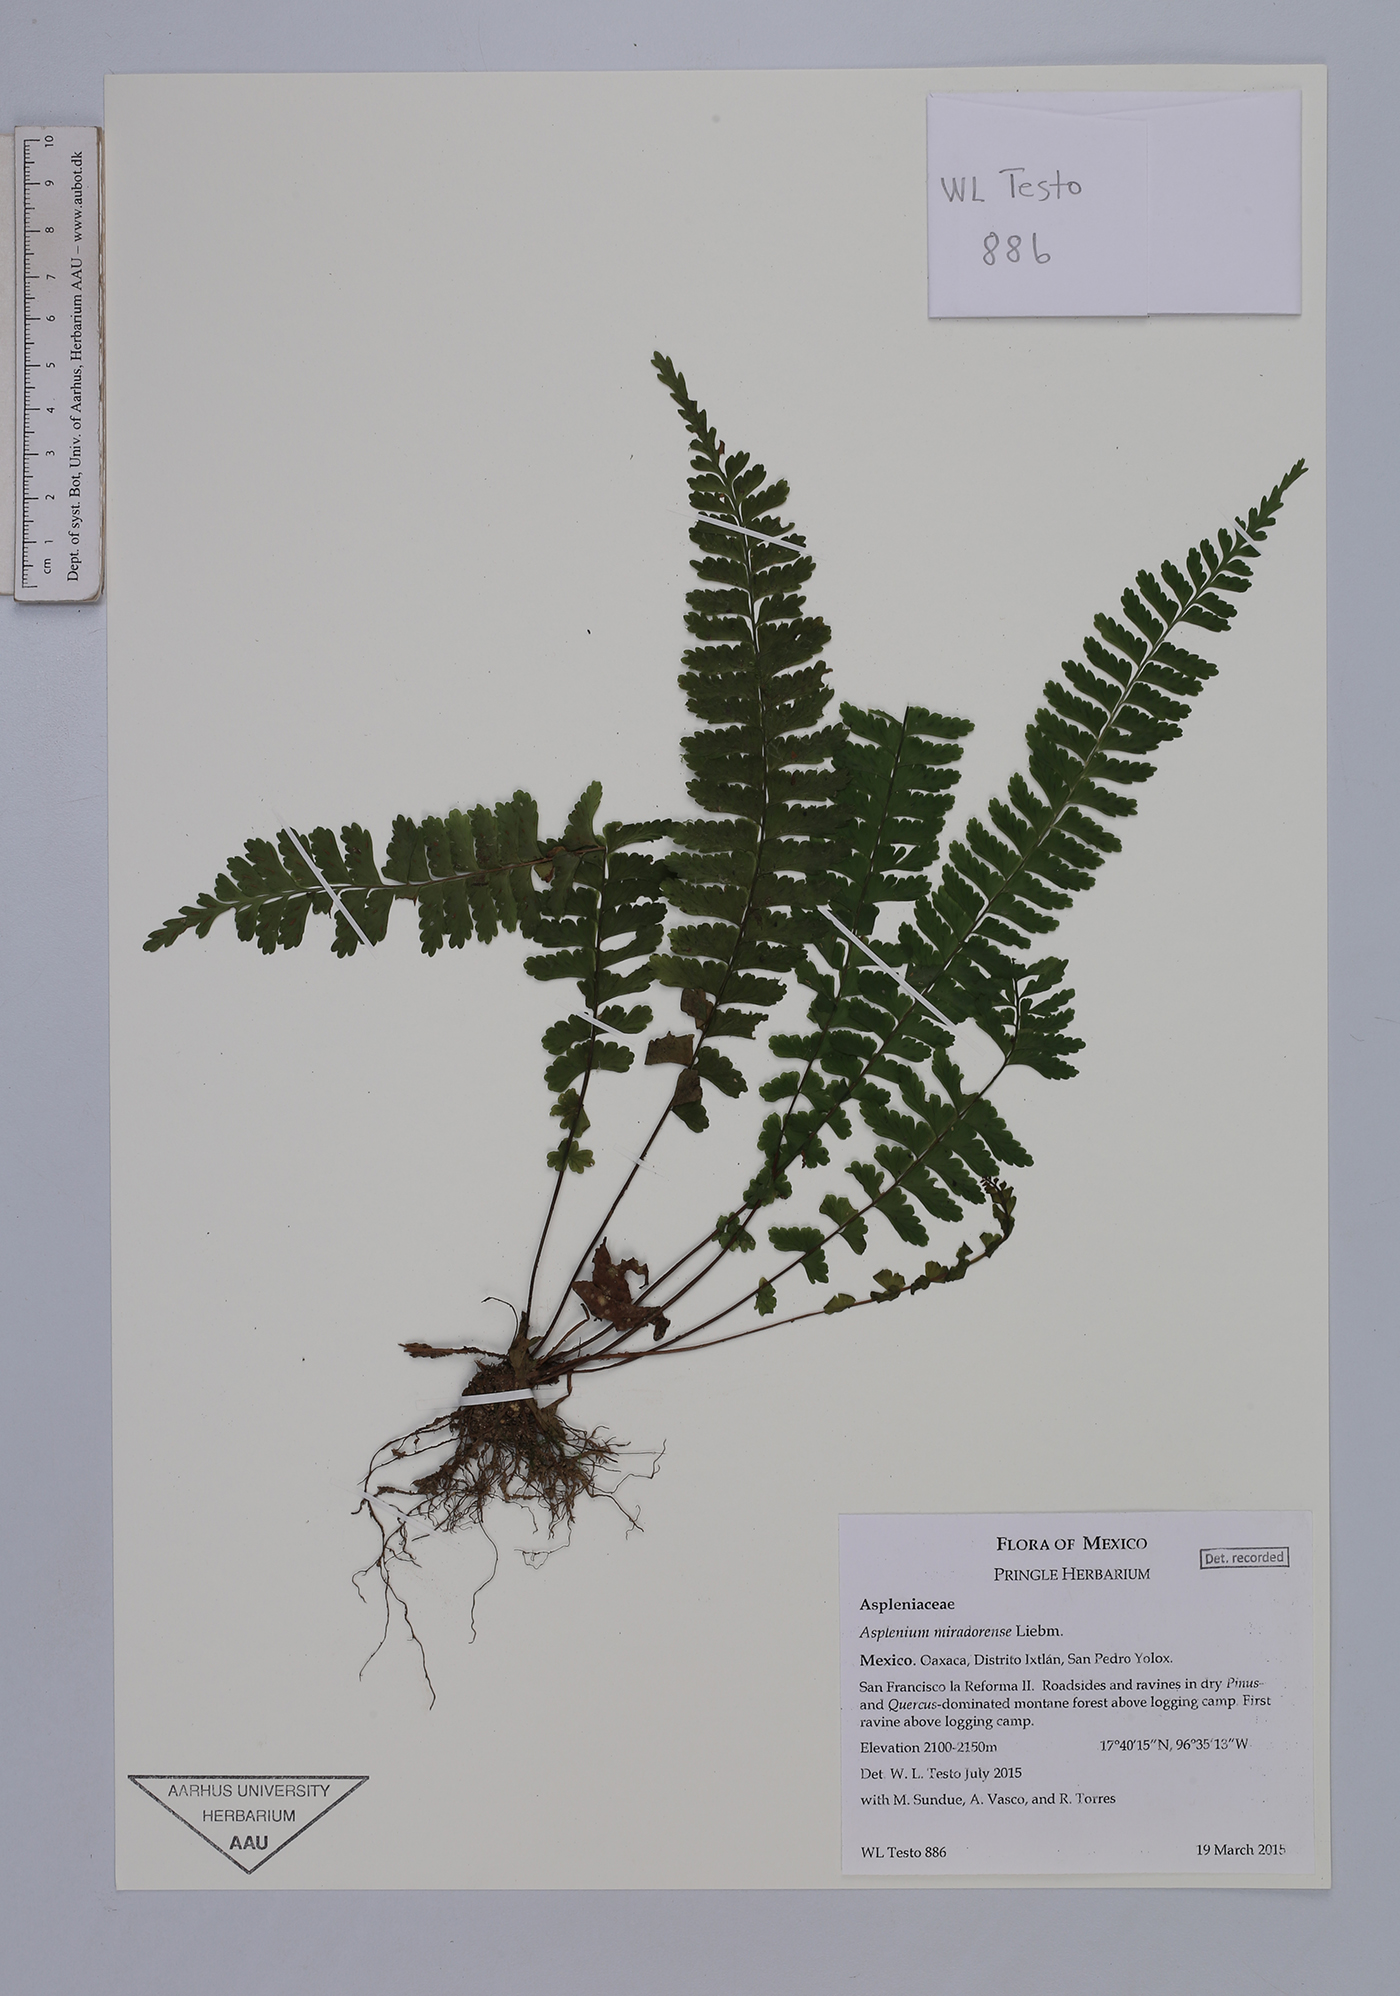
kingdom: Plantae
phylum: Tracheophyta
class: Polypodiopsida
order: Polypodiales
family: Aspleniaceae
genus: Asplenium
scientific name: Asplenium miradorense
